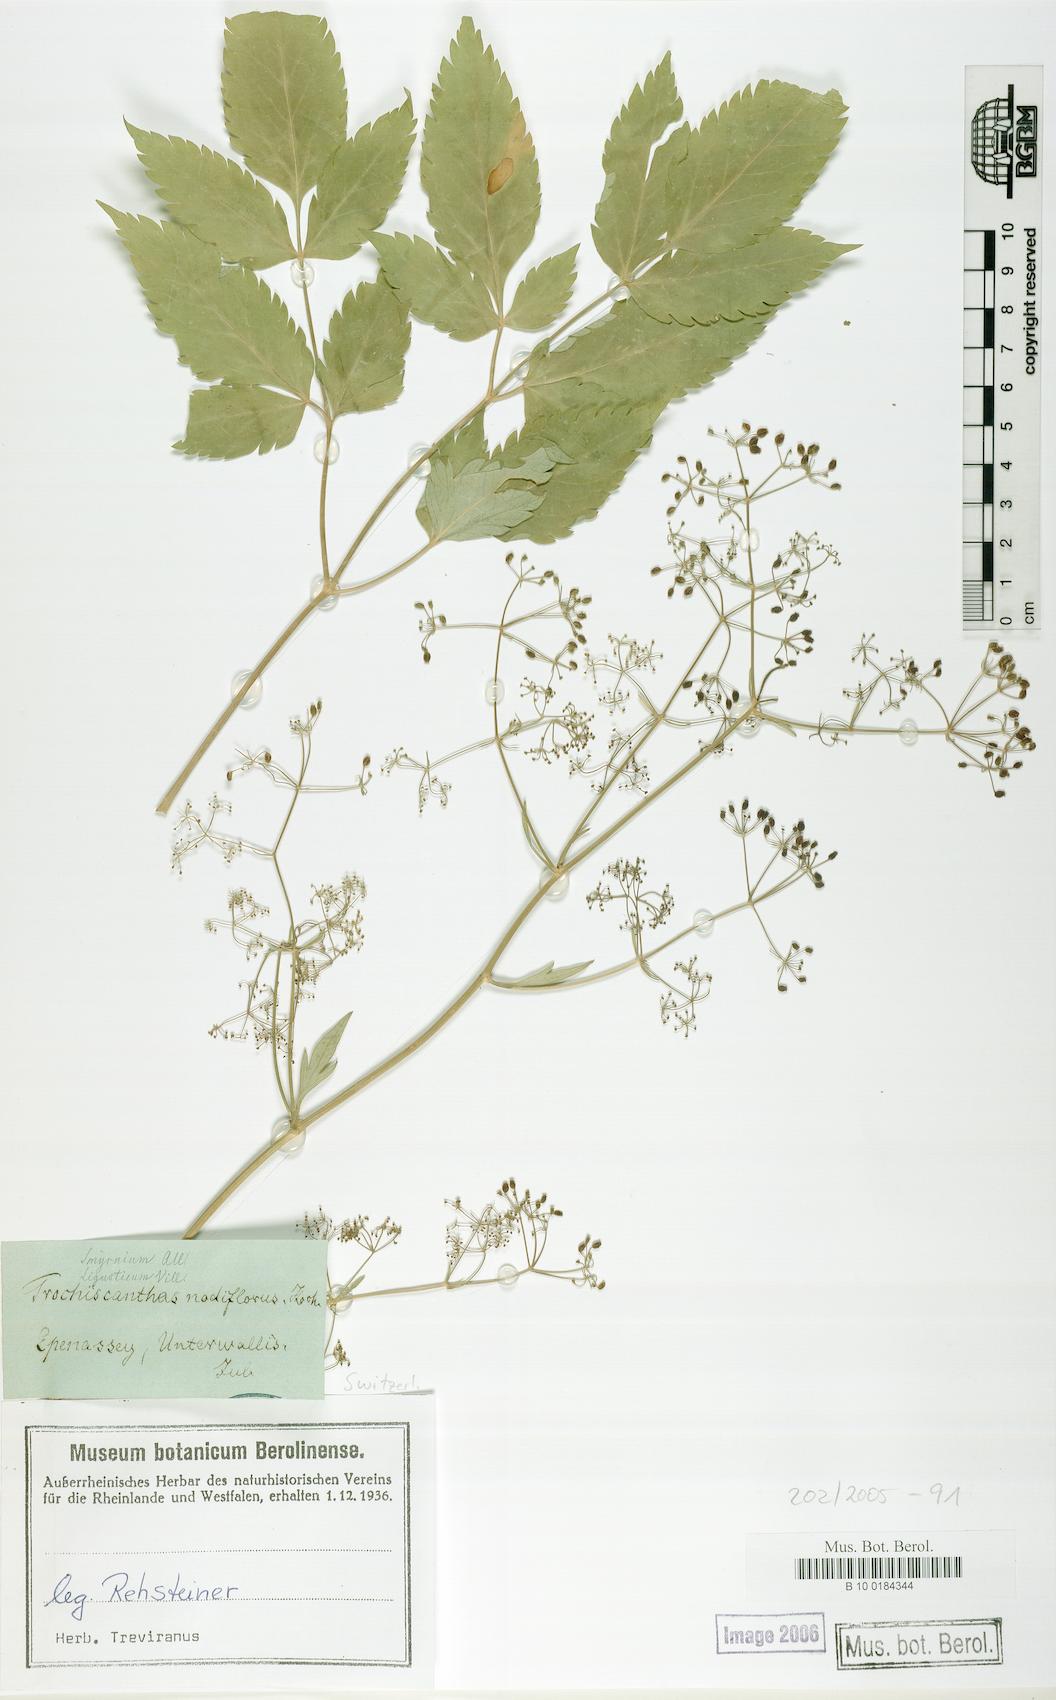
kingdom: Plantae
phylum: Tracheophyta
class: Magnoliopsida
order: Apiales
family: Apiaceae
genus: Trochiscanthes
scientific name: Trochiscanthes nodiflora
